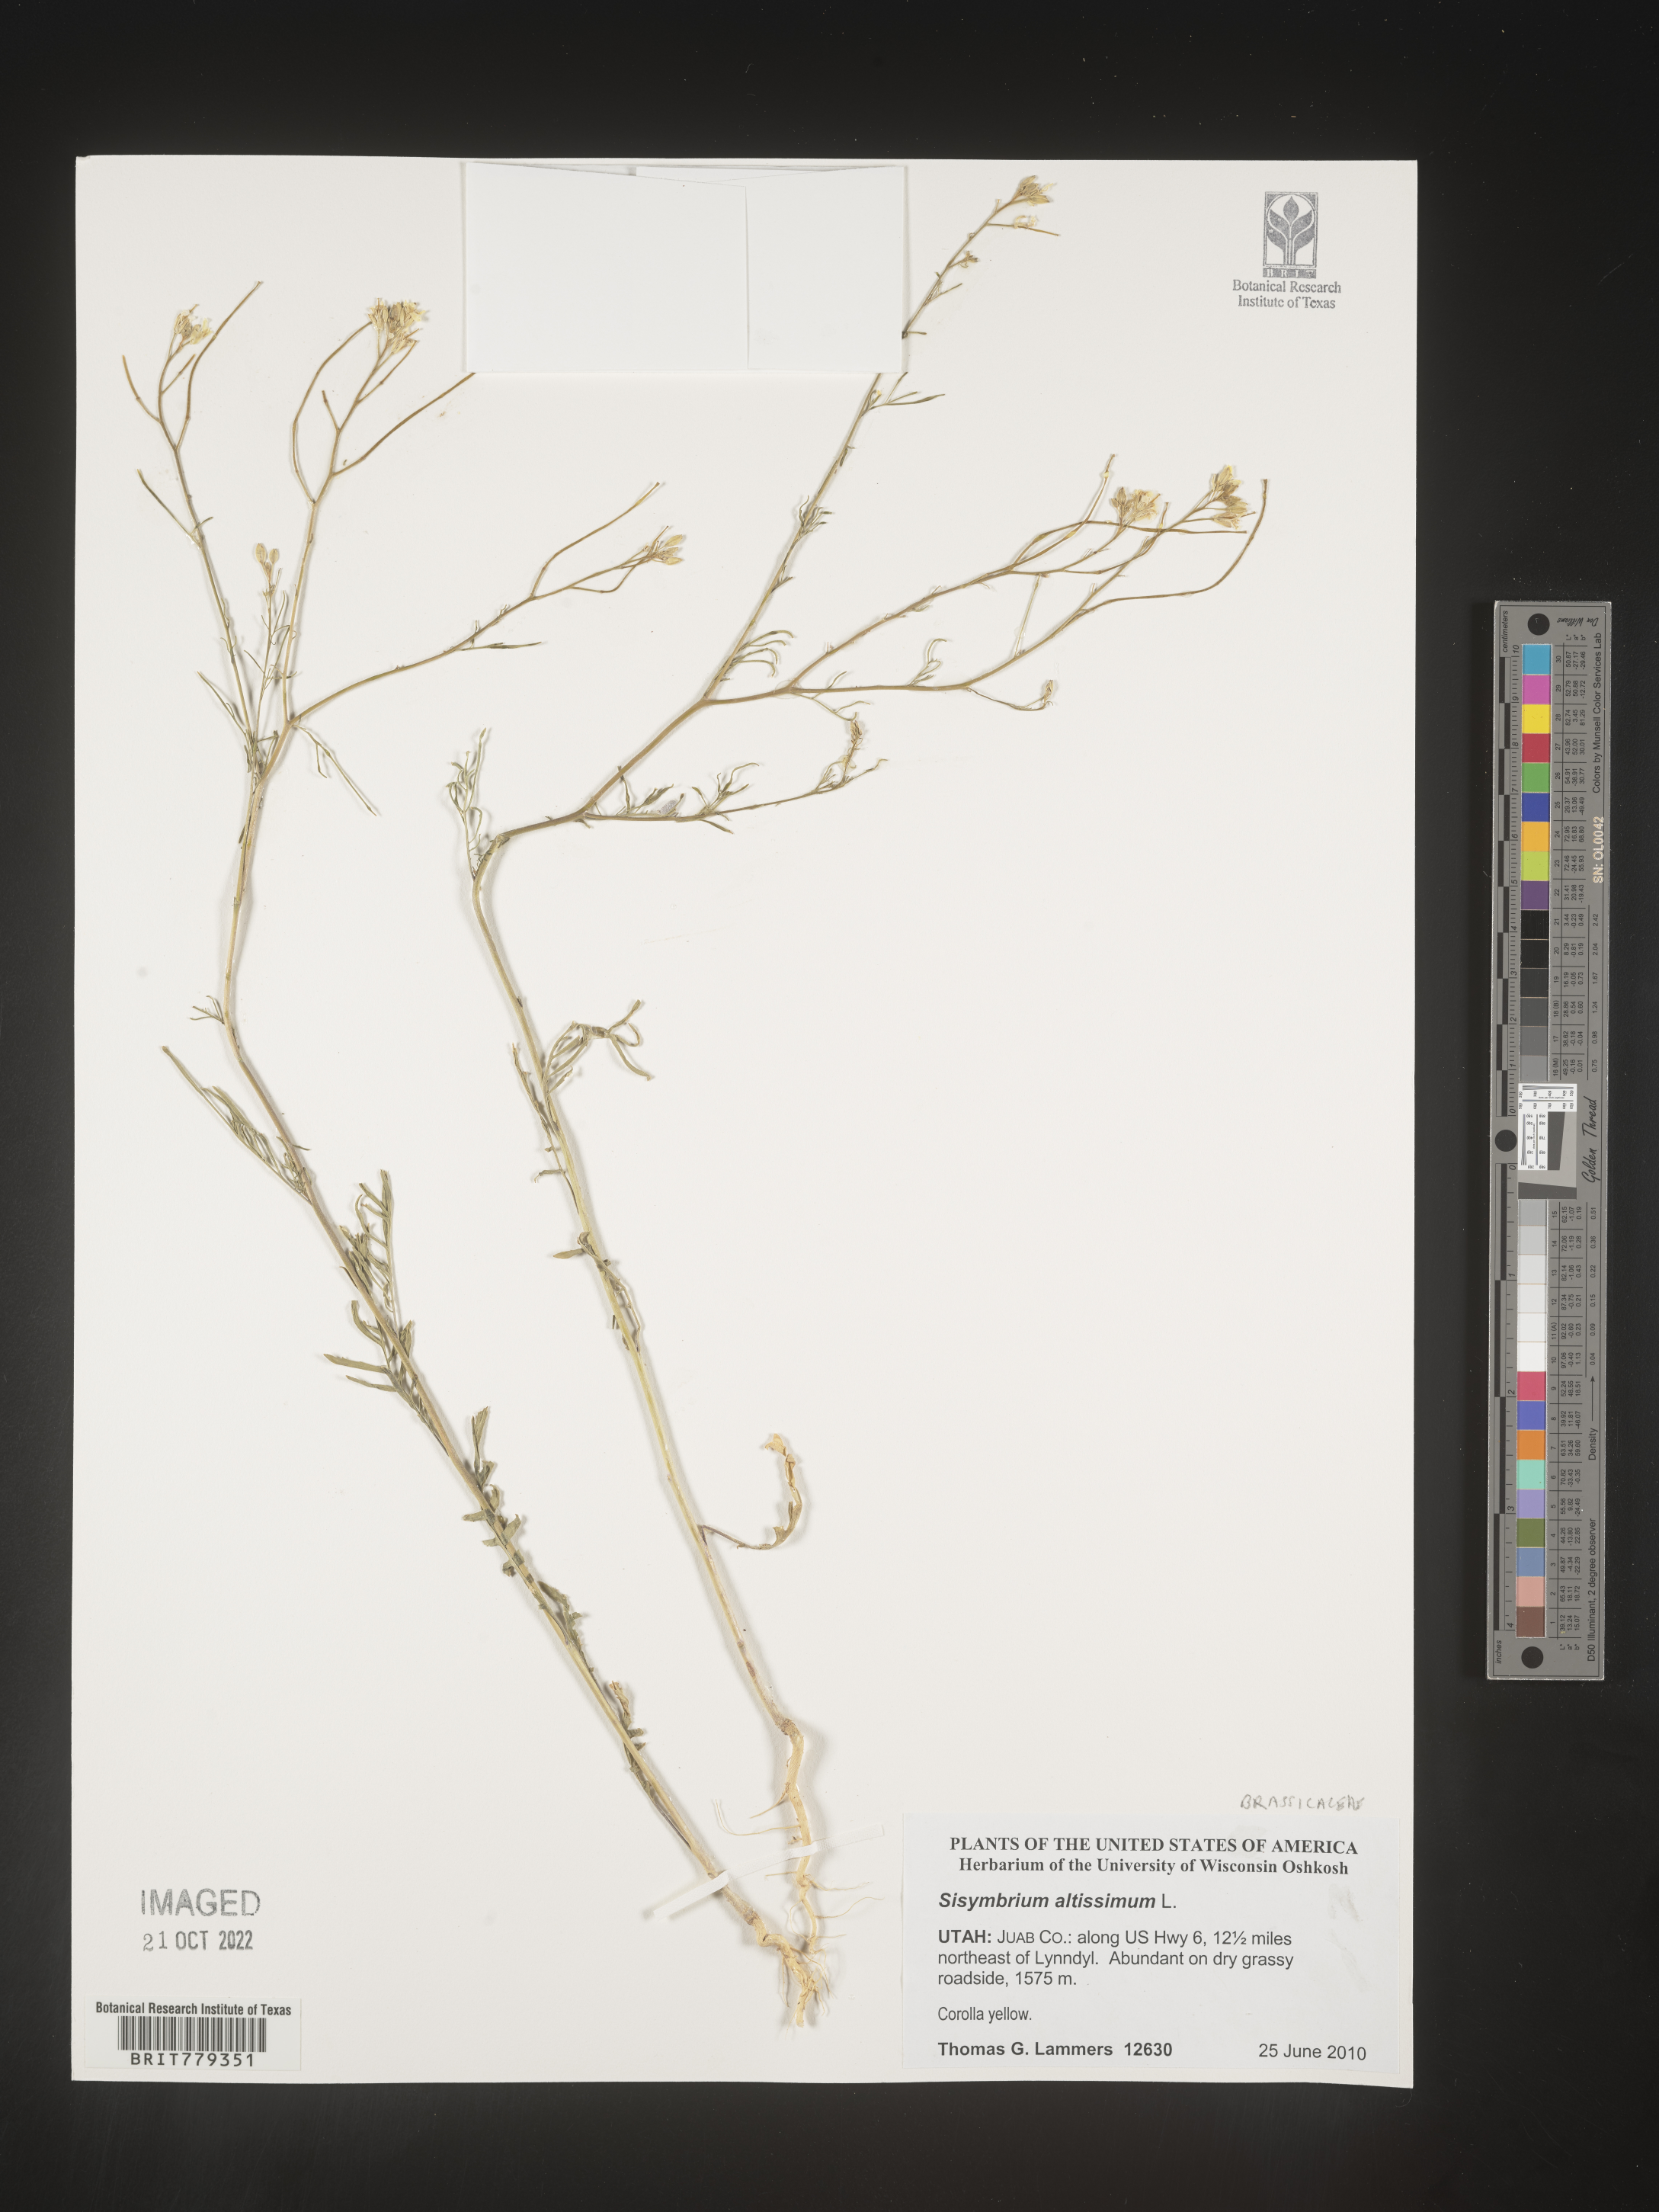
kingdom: Plantae
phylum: Tracheophyta
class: Magnoliopsida
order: Brassicales
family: Brassicaceae
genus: Sisymbrium
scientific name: Sisymbrium altissimum
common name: Tall rocket
